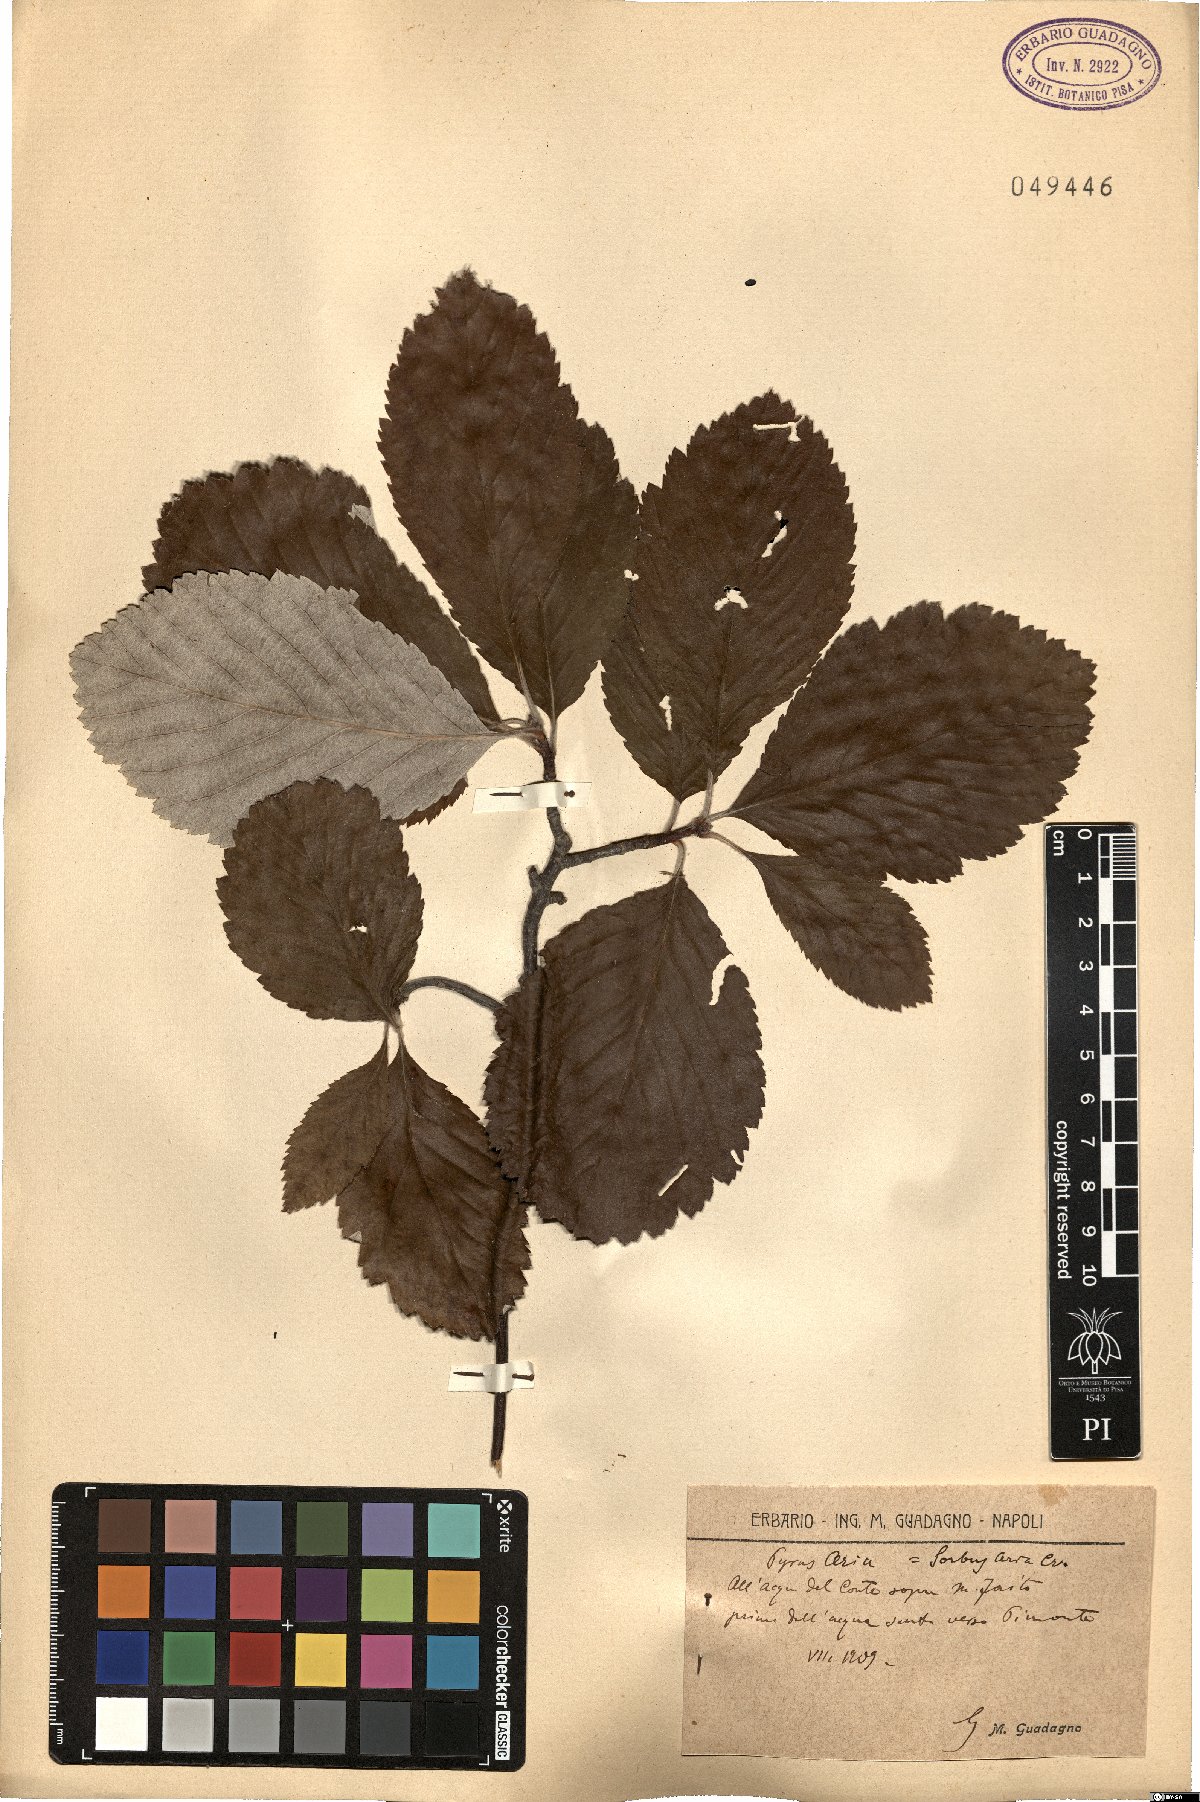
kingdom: Plantae
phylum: Tracheophyta
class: Magnoliopsida
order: Rosales
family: Rosaceae
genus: Aria
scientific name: Aria edulis
